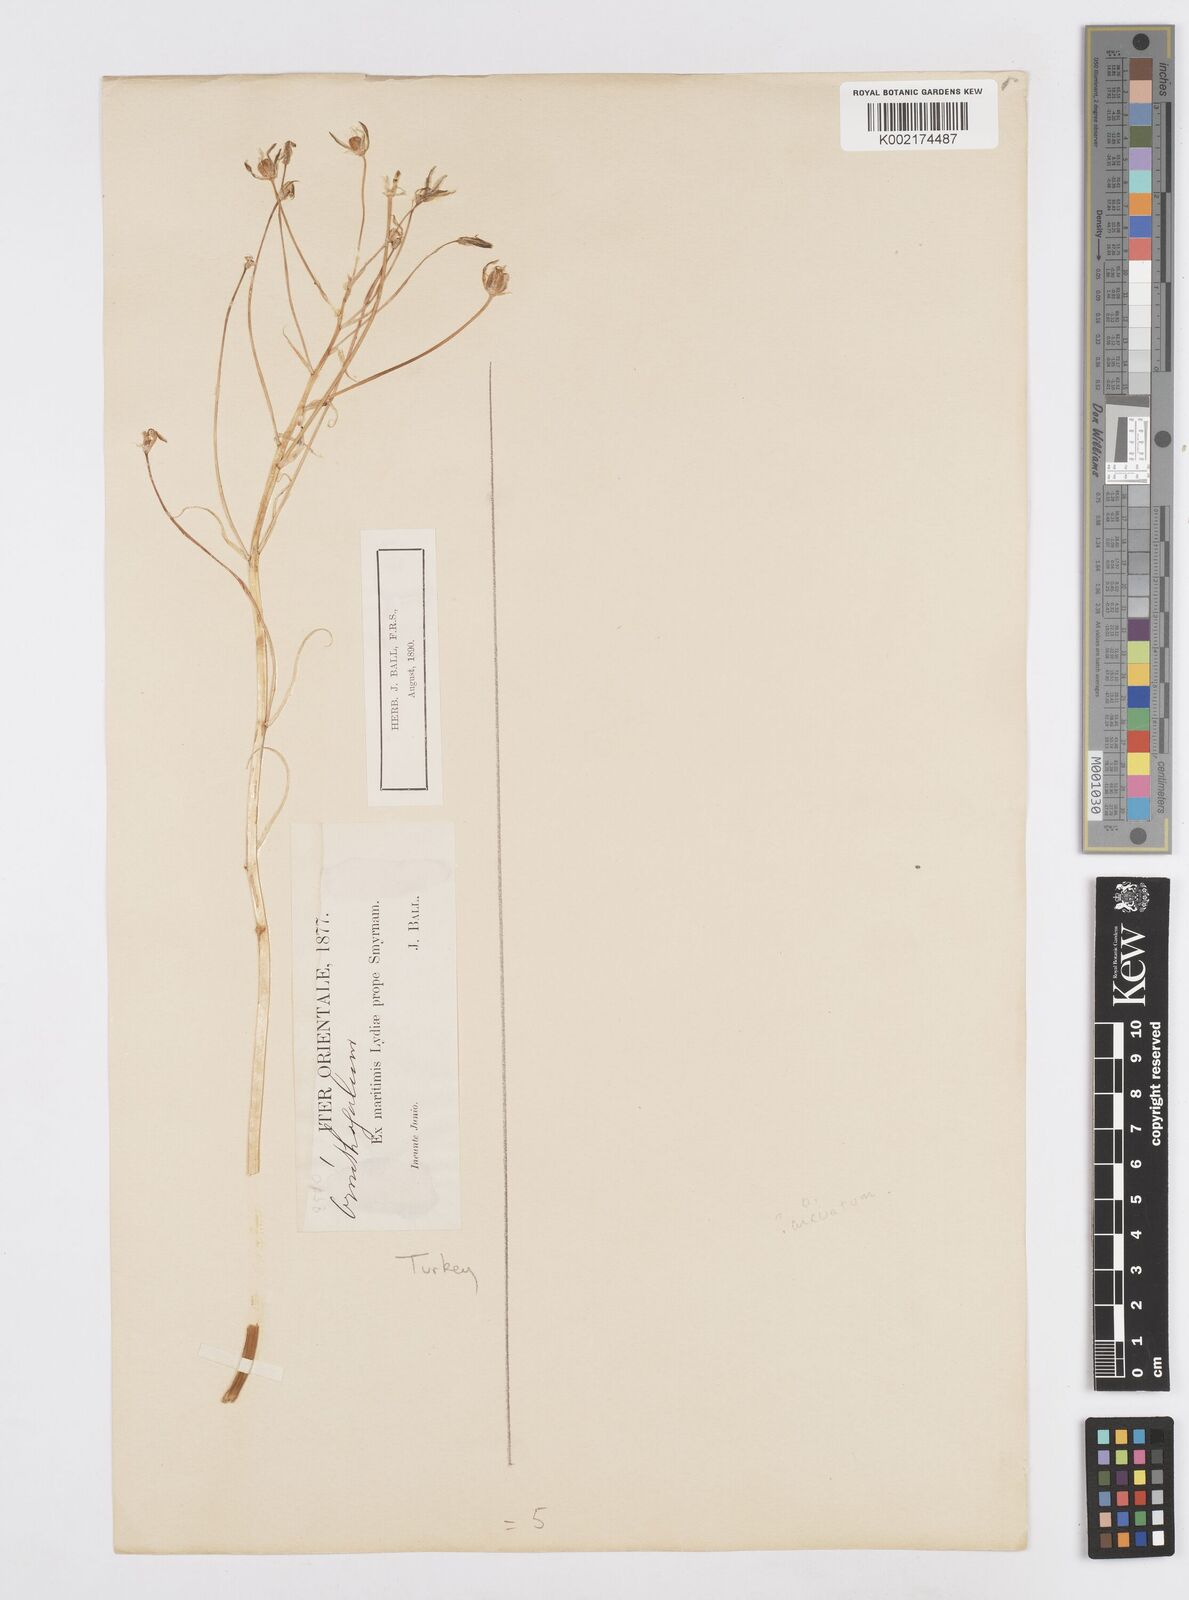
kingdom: Plantae
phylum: Tracheophyta
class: Liliopsida
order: Asparagales
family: Asparagaceae
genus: Ornithogalum
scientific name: Ornithogalum arcuatum
